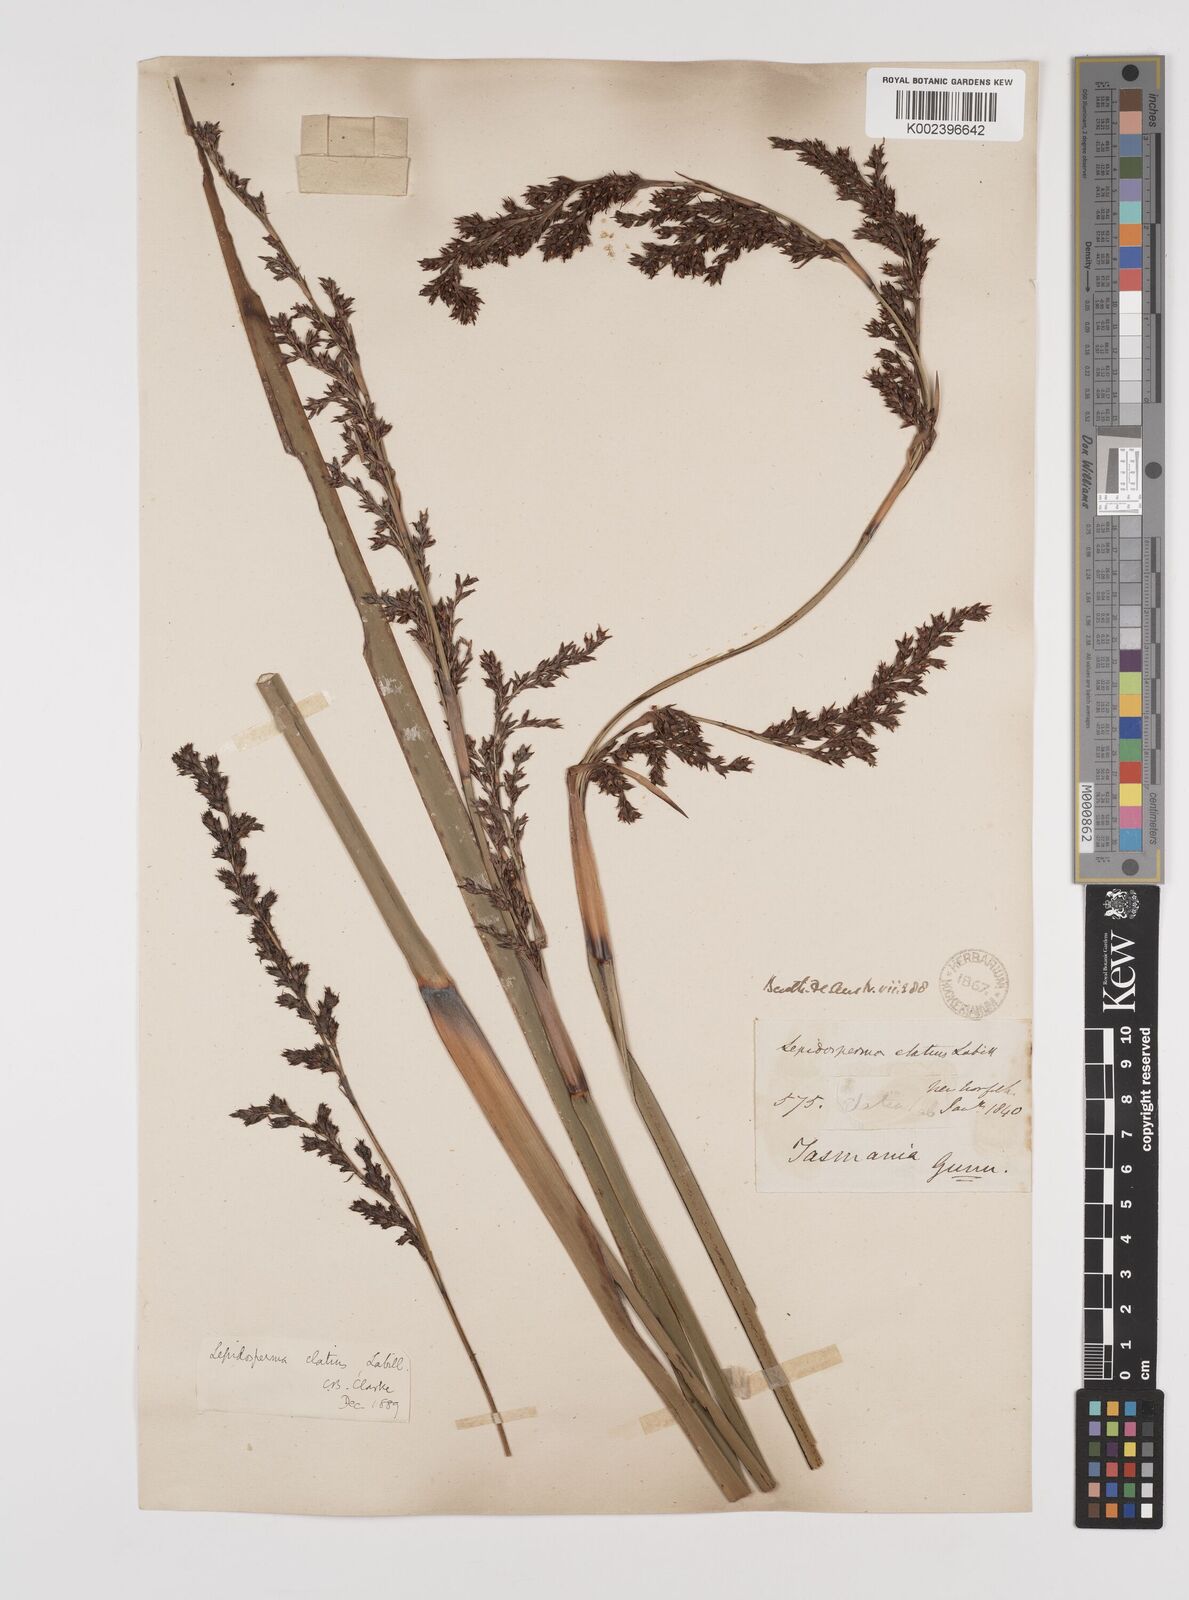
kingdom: Plantae
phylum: Tracheophyta
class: Liliopsida
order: Poales
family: Cyperaceae
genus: Lepidosperma
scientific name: Lepidosperma elatius
